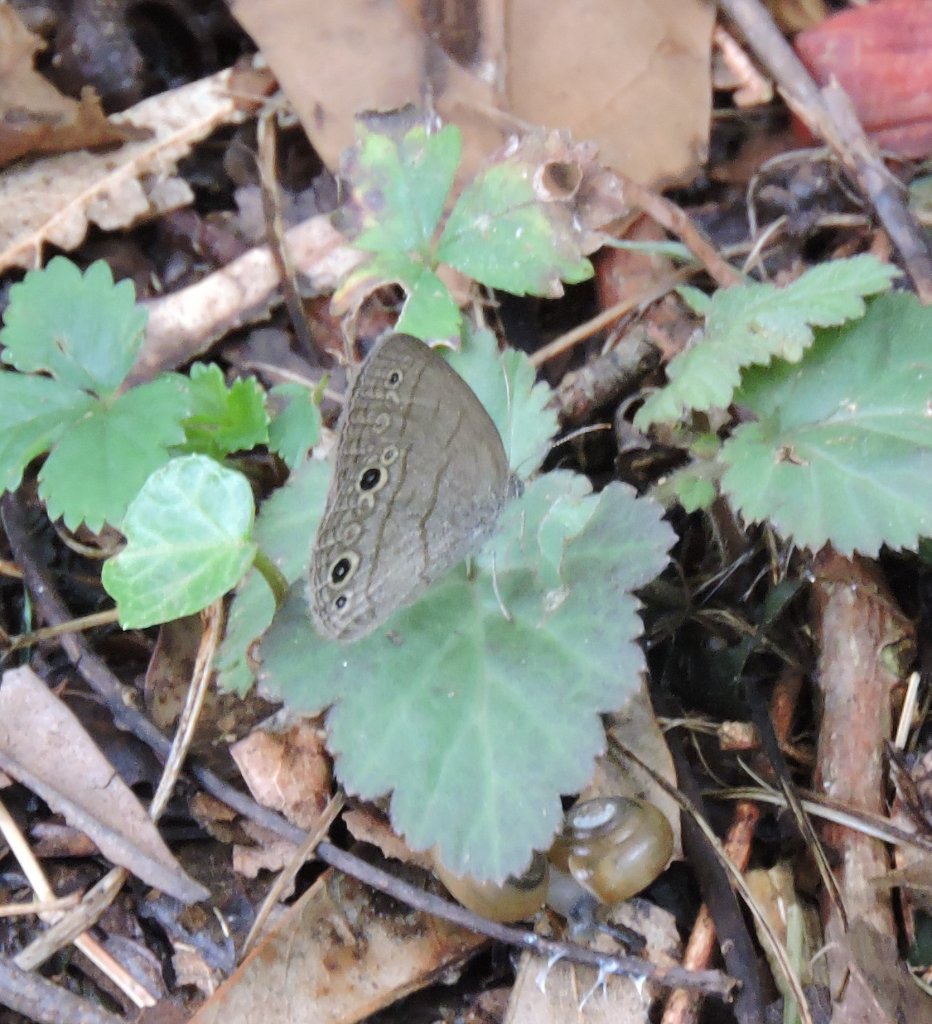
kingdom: Animalia
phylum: Arthropoda
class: Insecta
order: Lepidoptera
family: Nymphalidae
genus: Hermeuptychia
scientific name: Hermeuptychia hermes
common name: Carolina Satyr
